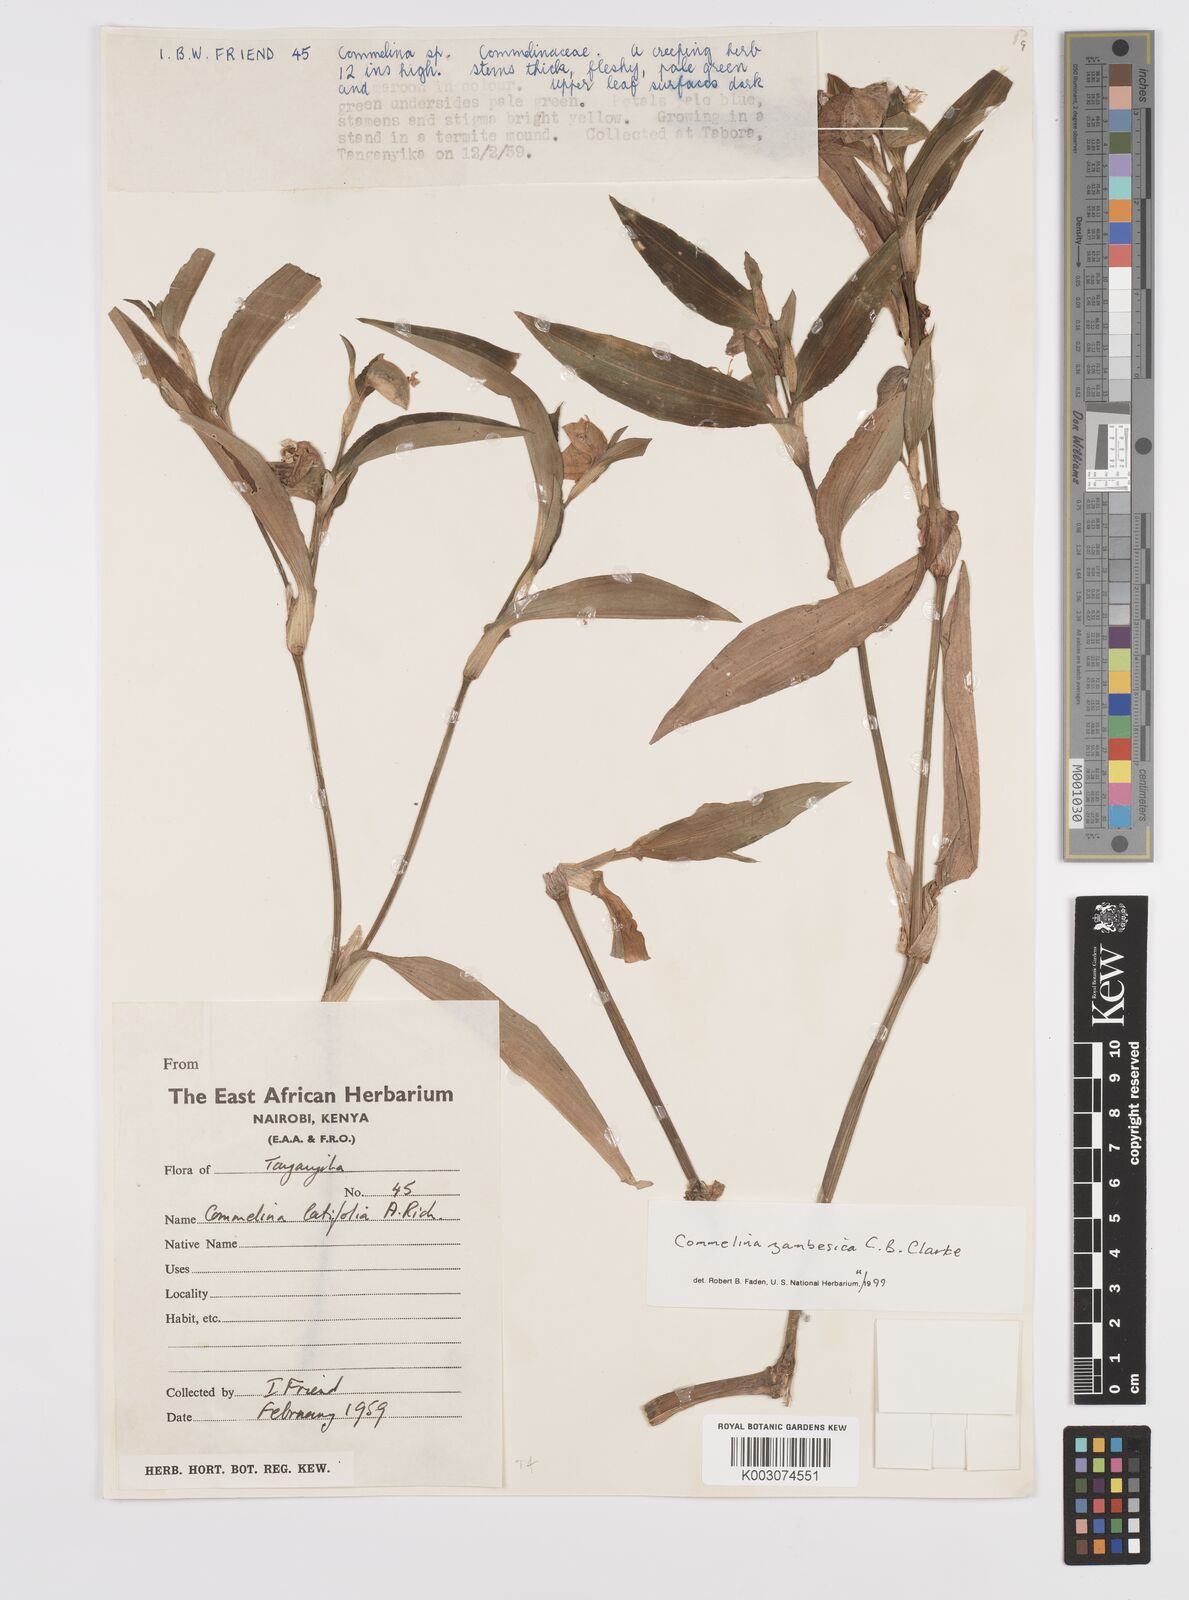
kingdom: Plantae
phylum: Tracheophyta
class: Liliopsida
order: Commelinales
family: Commelinaceae
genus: Commelina
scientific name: Commelina zambesica
